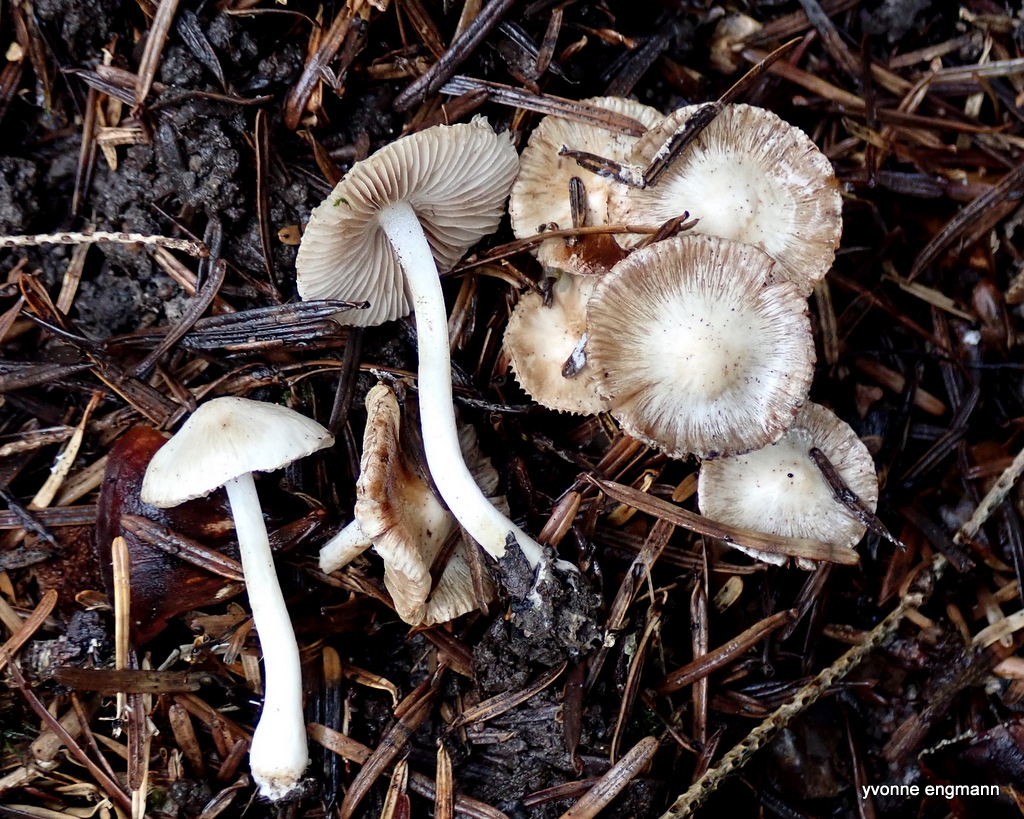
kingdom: Fungi
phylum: Basidiomycota
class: Agaricomycetes
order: Agaricales
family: Inocybaceae
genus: Inocybe
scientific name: Inocybe
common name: almindelig trævlhat
